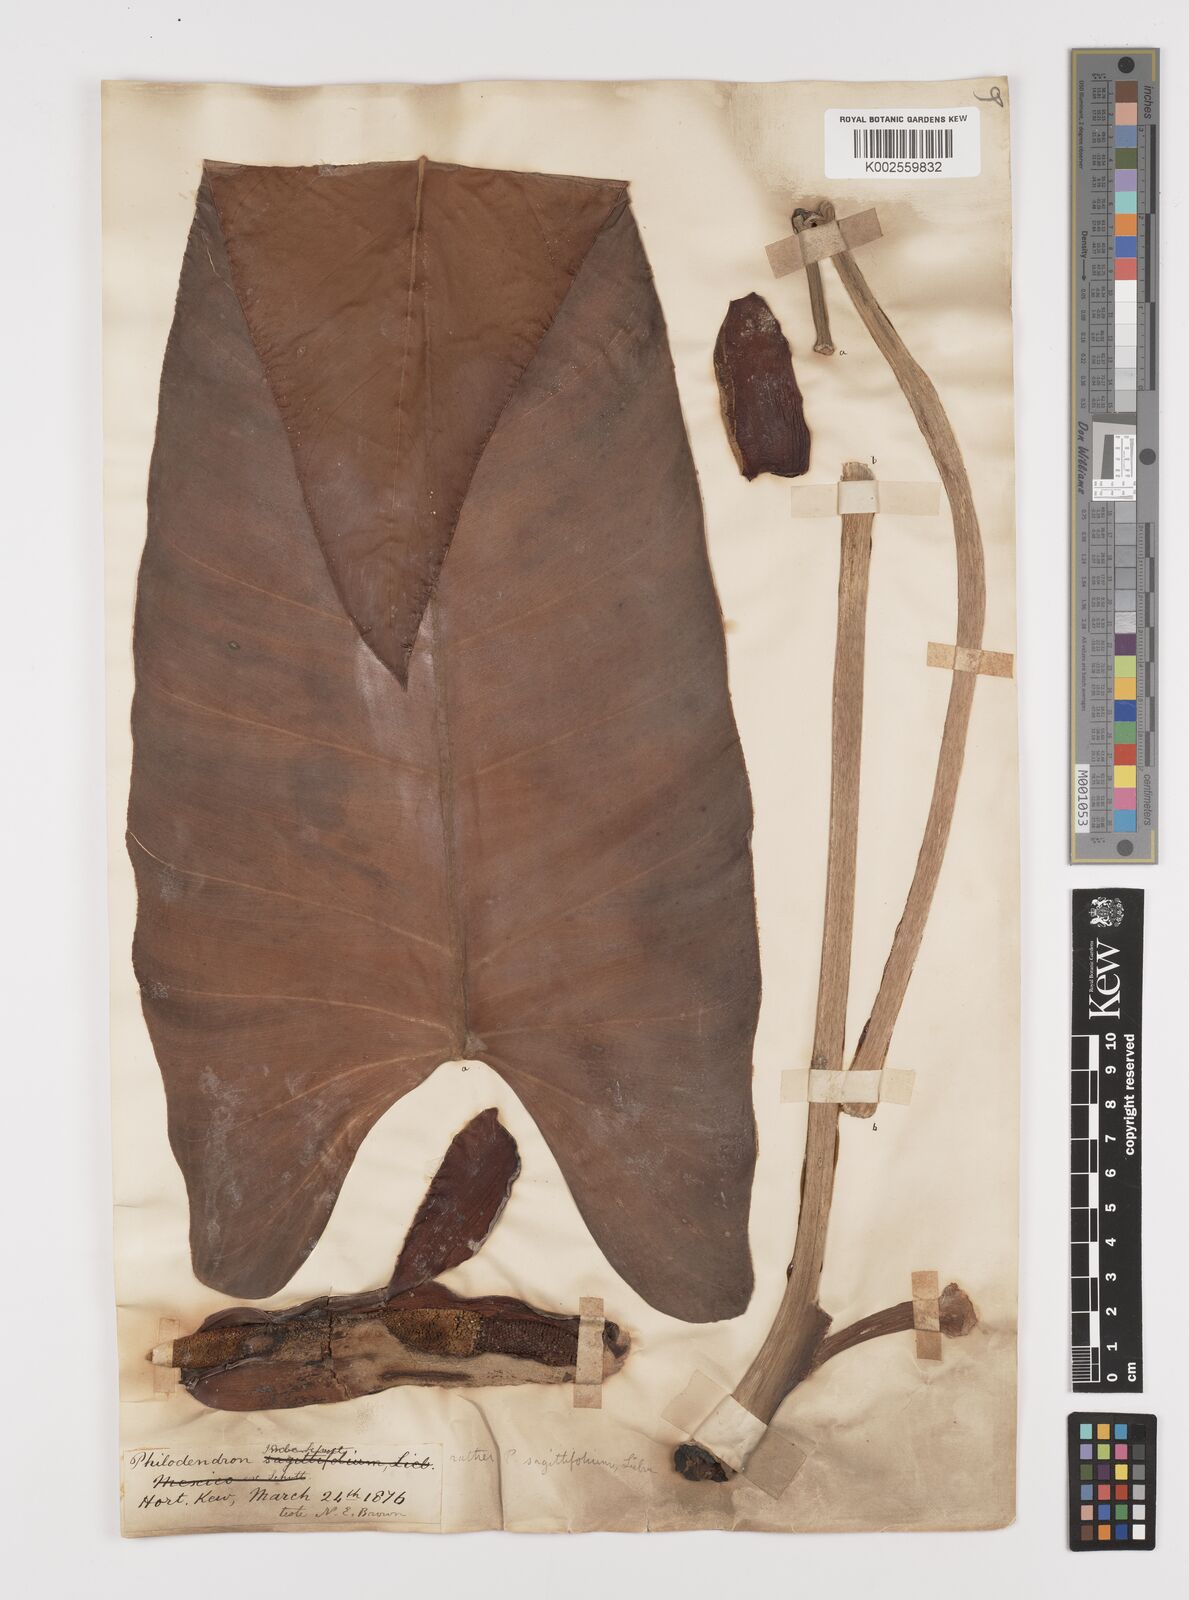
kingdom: Plantae
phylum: Tracheophyta
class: Liliopsida
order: Alismatales
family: Araceae
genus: Philodendron
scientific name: Philodendron sagittifolium
